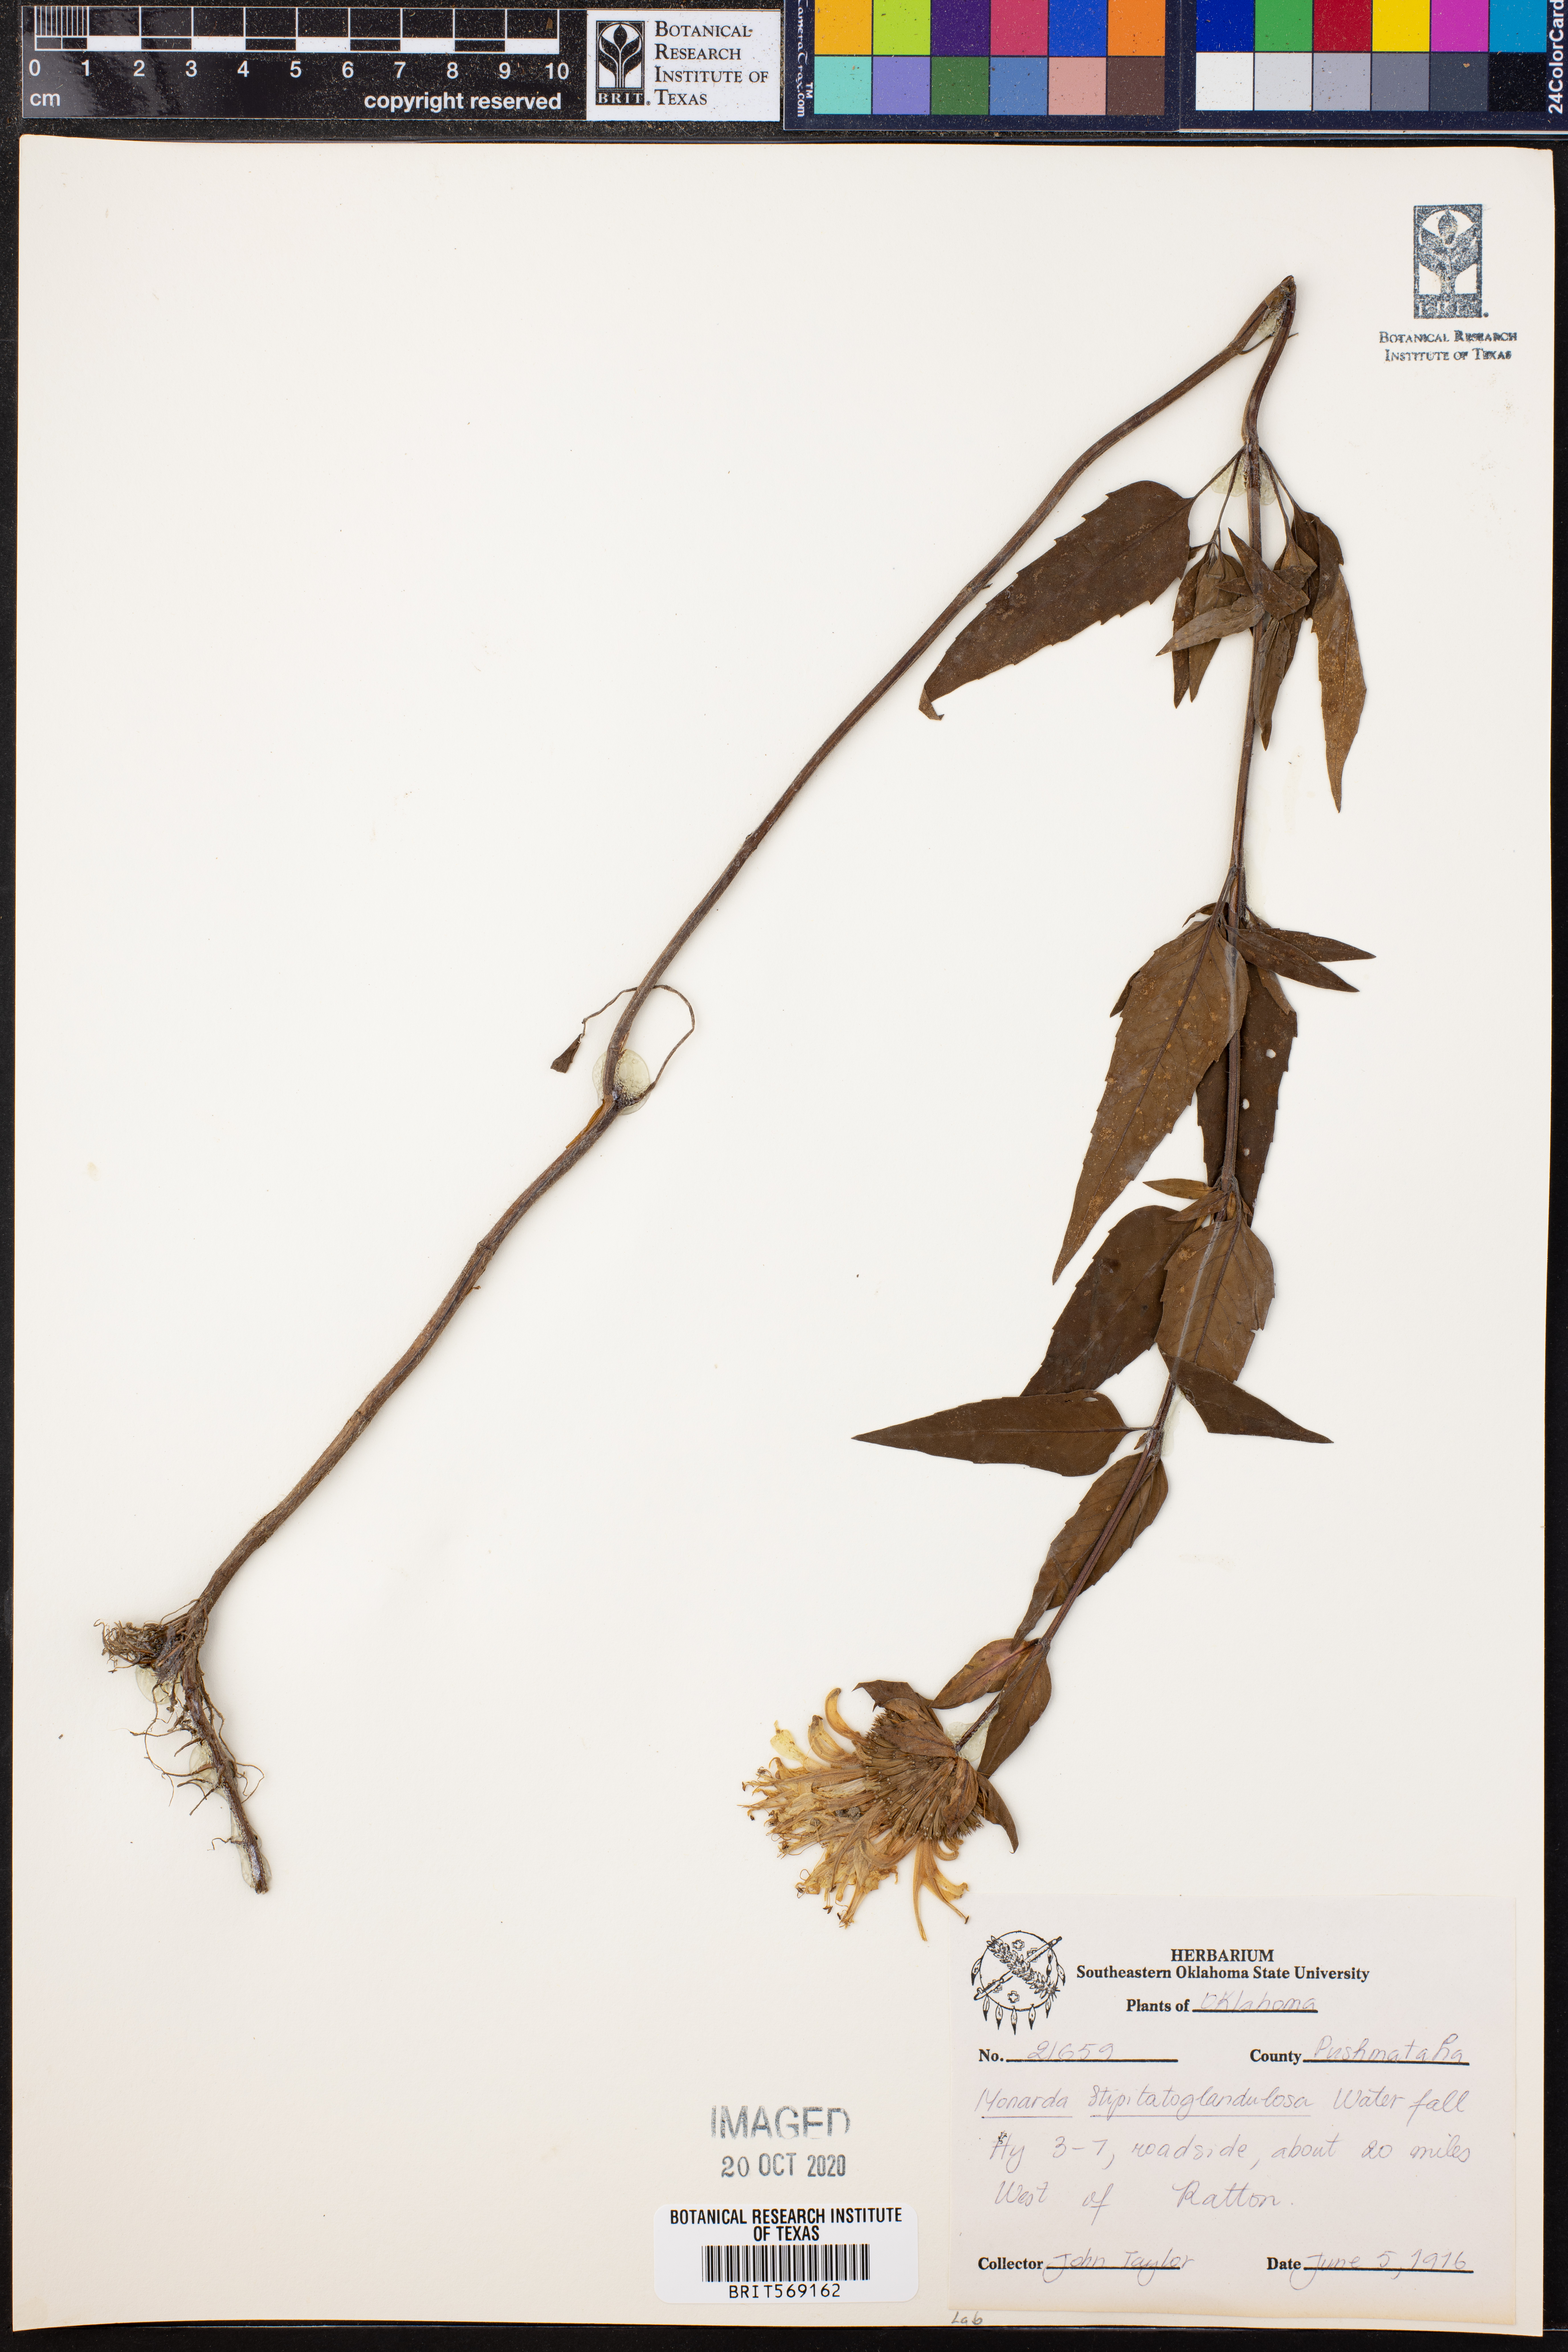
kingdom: Plantae
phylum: Tracheophyta
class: Magnoliopsida
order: Lamiales
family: Lamiaceae
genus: Monarda
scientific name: Monarda fistulosa
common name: Purple beebalm
